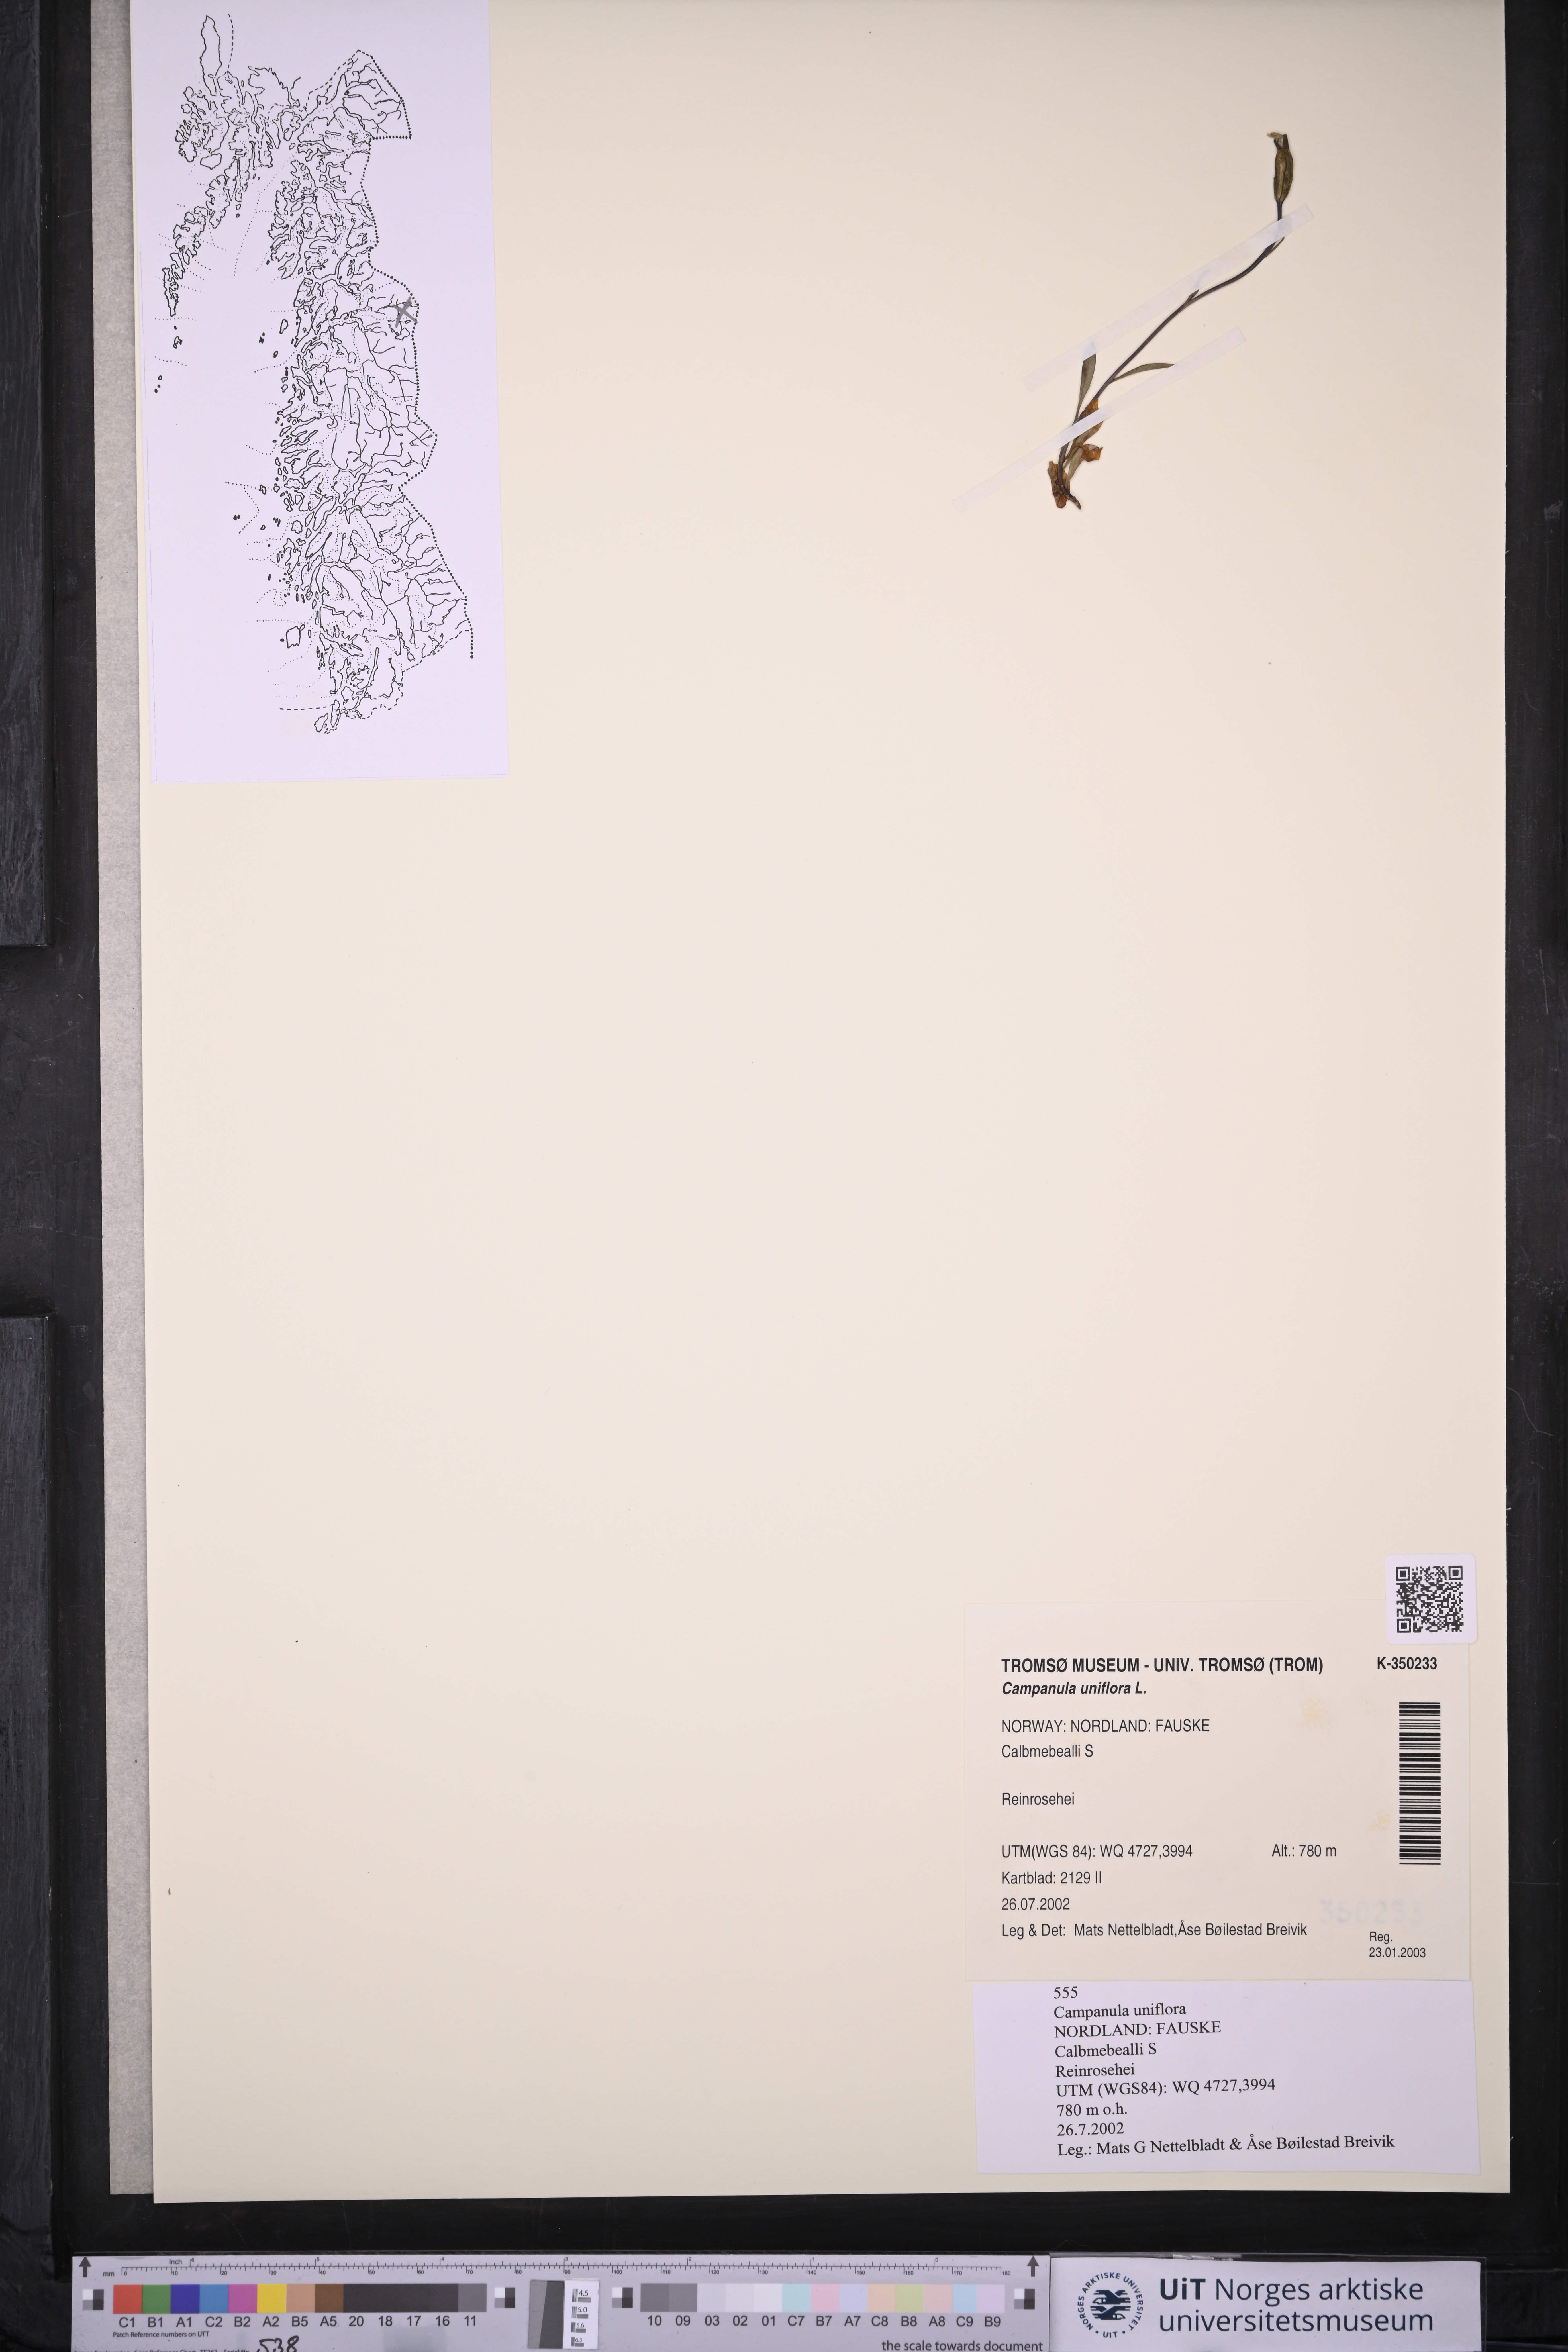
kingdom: Plantae
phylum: Tracheophyta
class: Magnoliopsida
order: Asterales
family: Campanulaceae
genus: Melanocalyx
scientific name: Melanocalyx uniflora
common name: Alpine harebell
